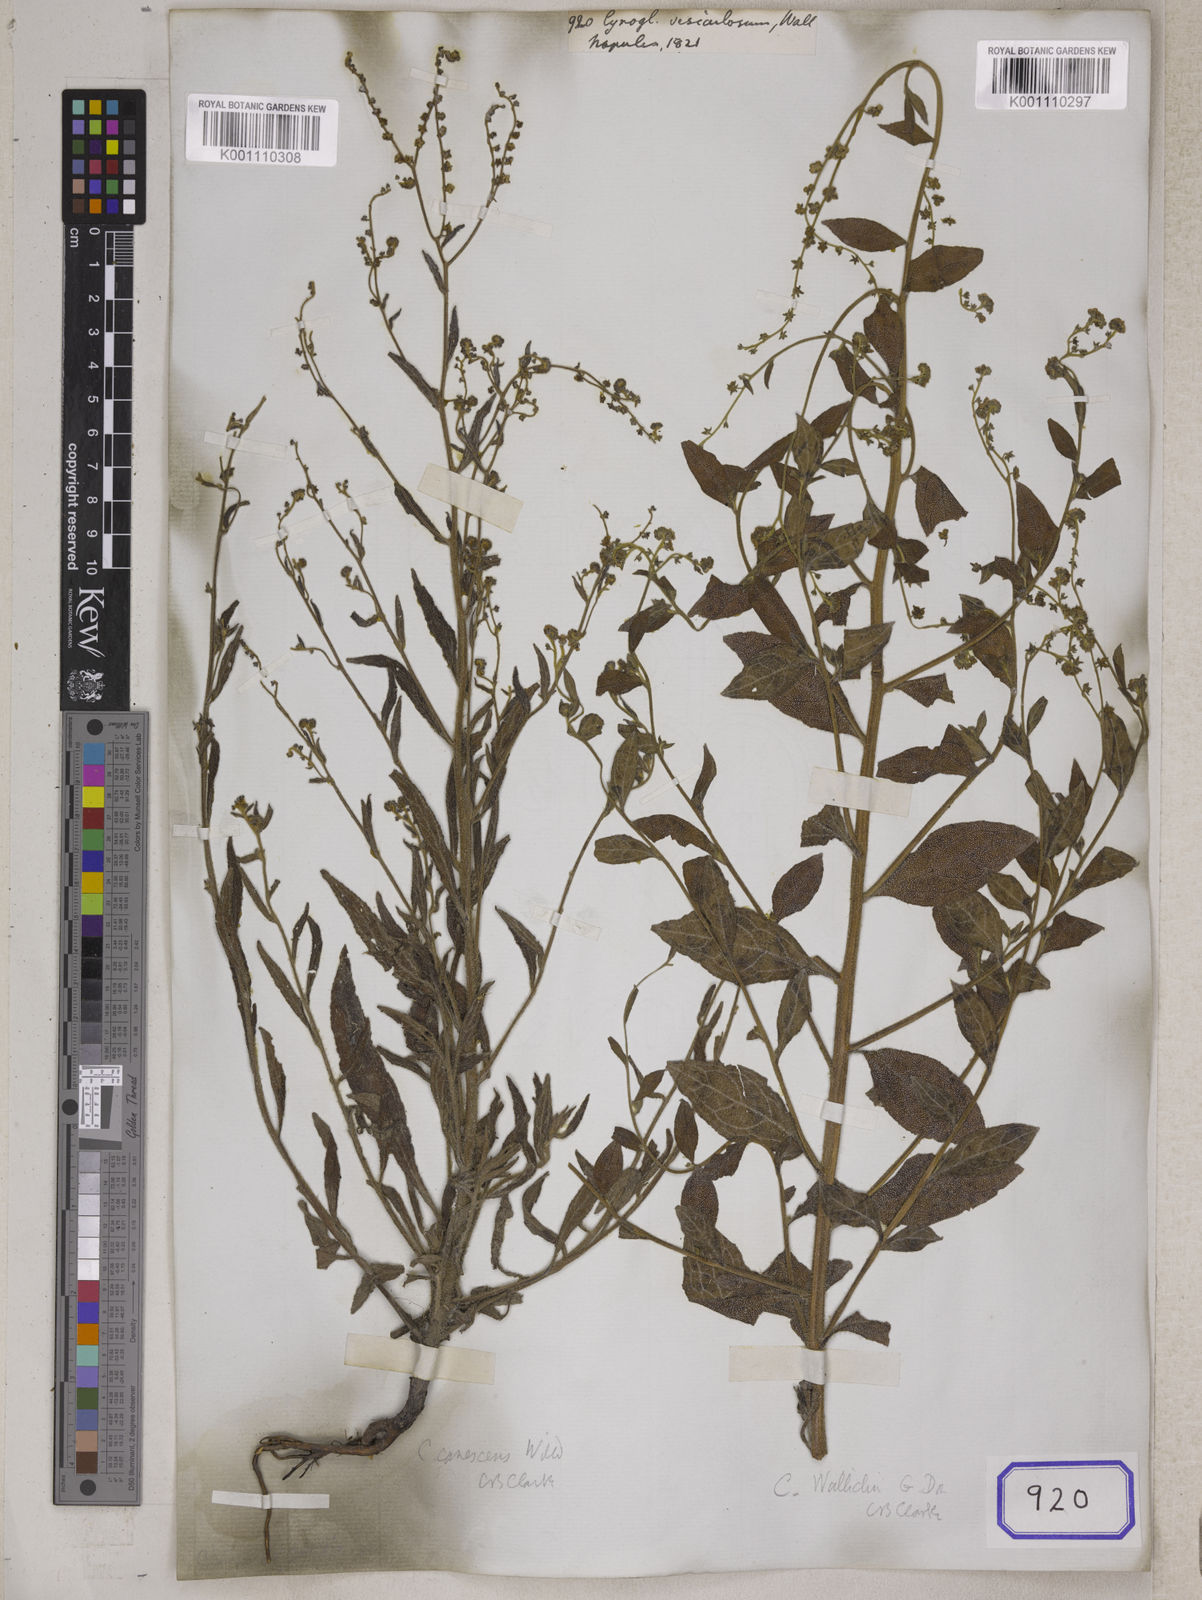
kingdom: Plantae
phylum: Tracheophyta
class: Magnoliopsida
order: Boraginales
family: Boraginaceae
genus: Cynoglossum
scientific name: Cynoglossum
